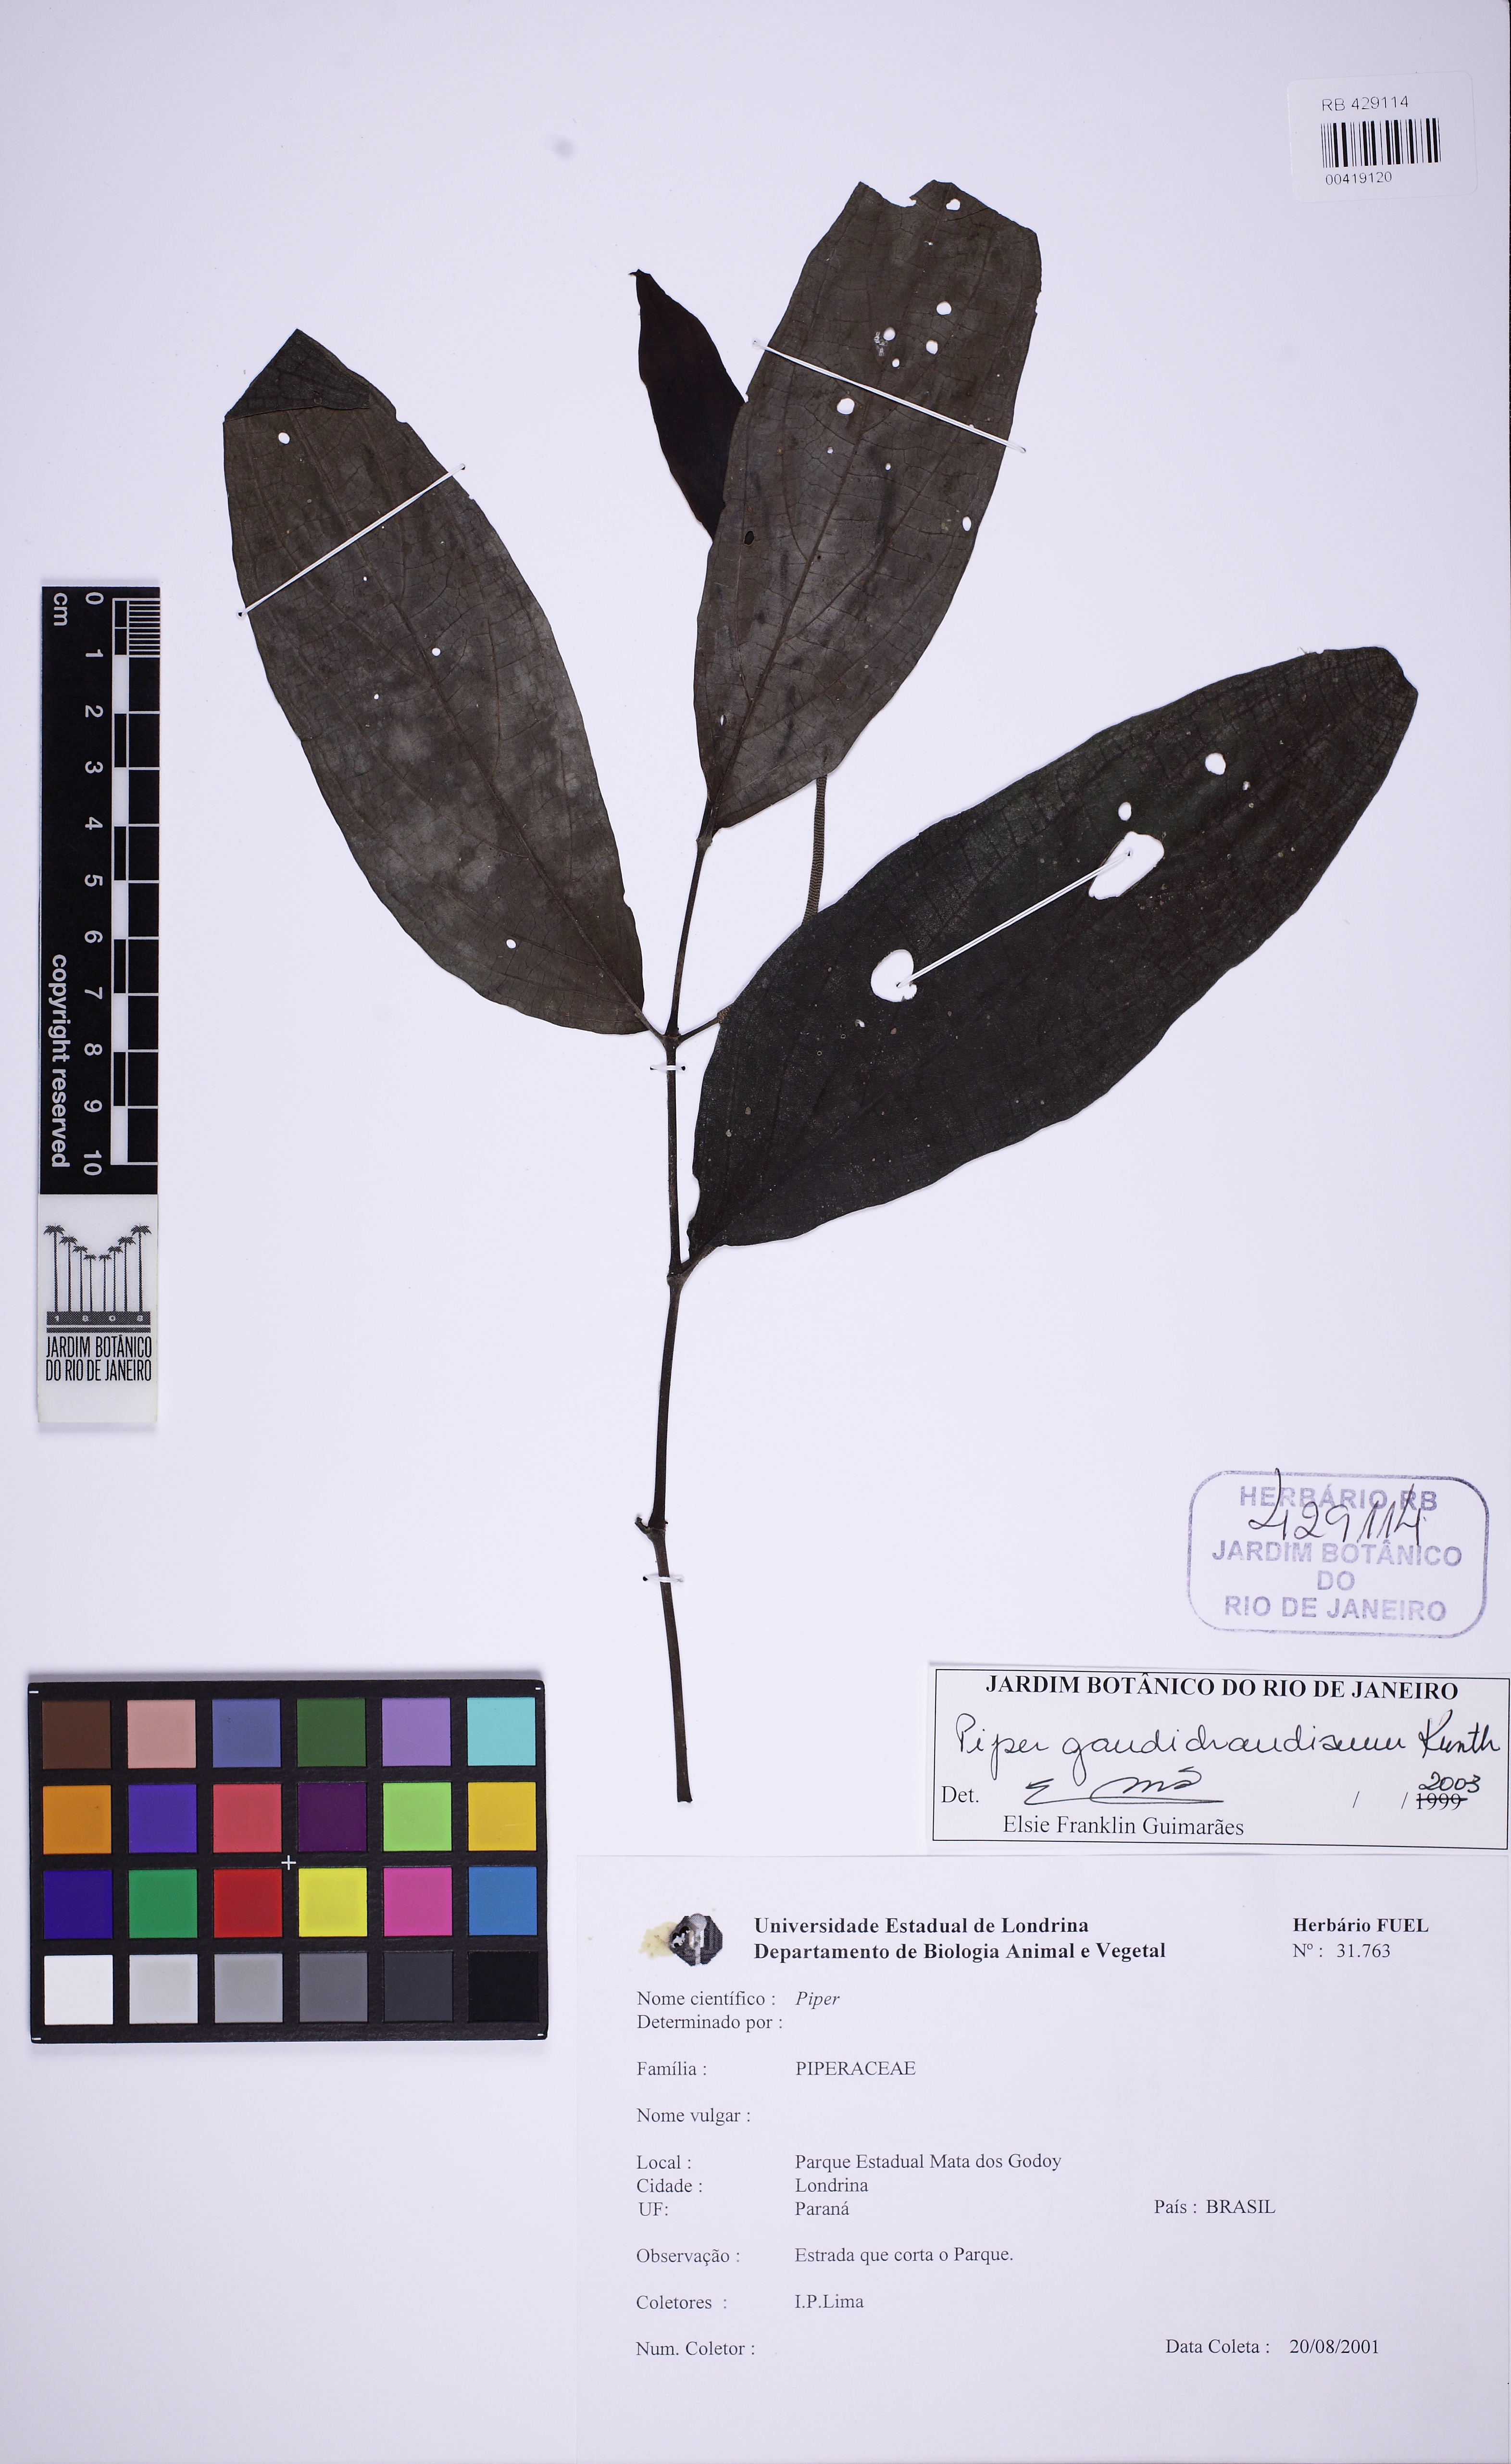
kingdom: Plantae
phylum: Tracheophyta
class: Magnoliopsida
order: Piperales
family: Piperaceae
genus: Piper
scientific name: Piper gaudichaudianum
